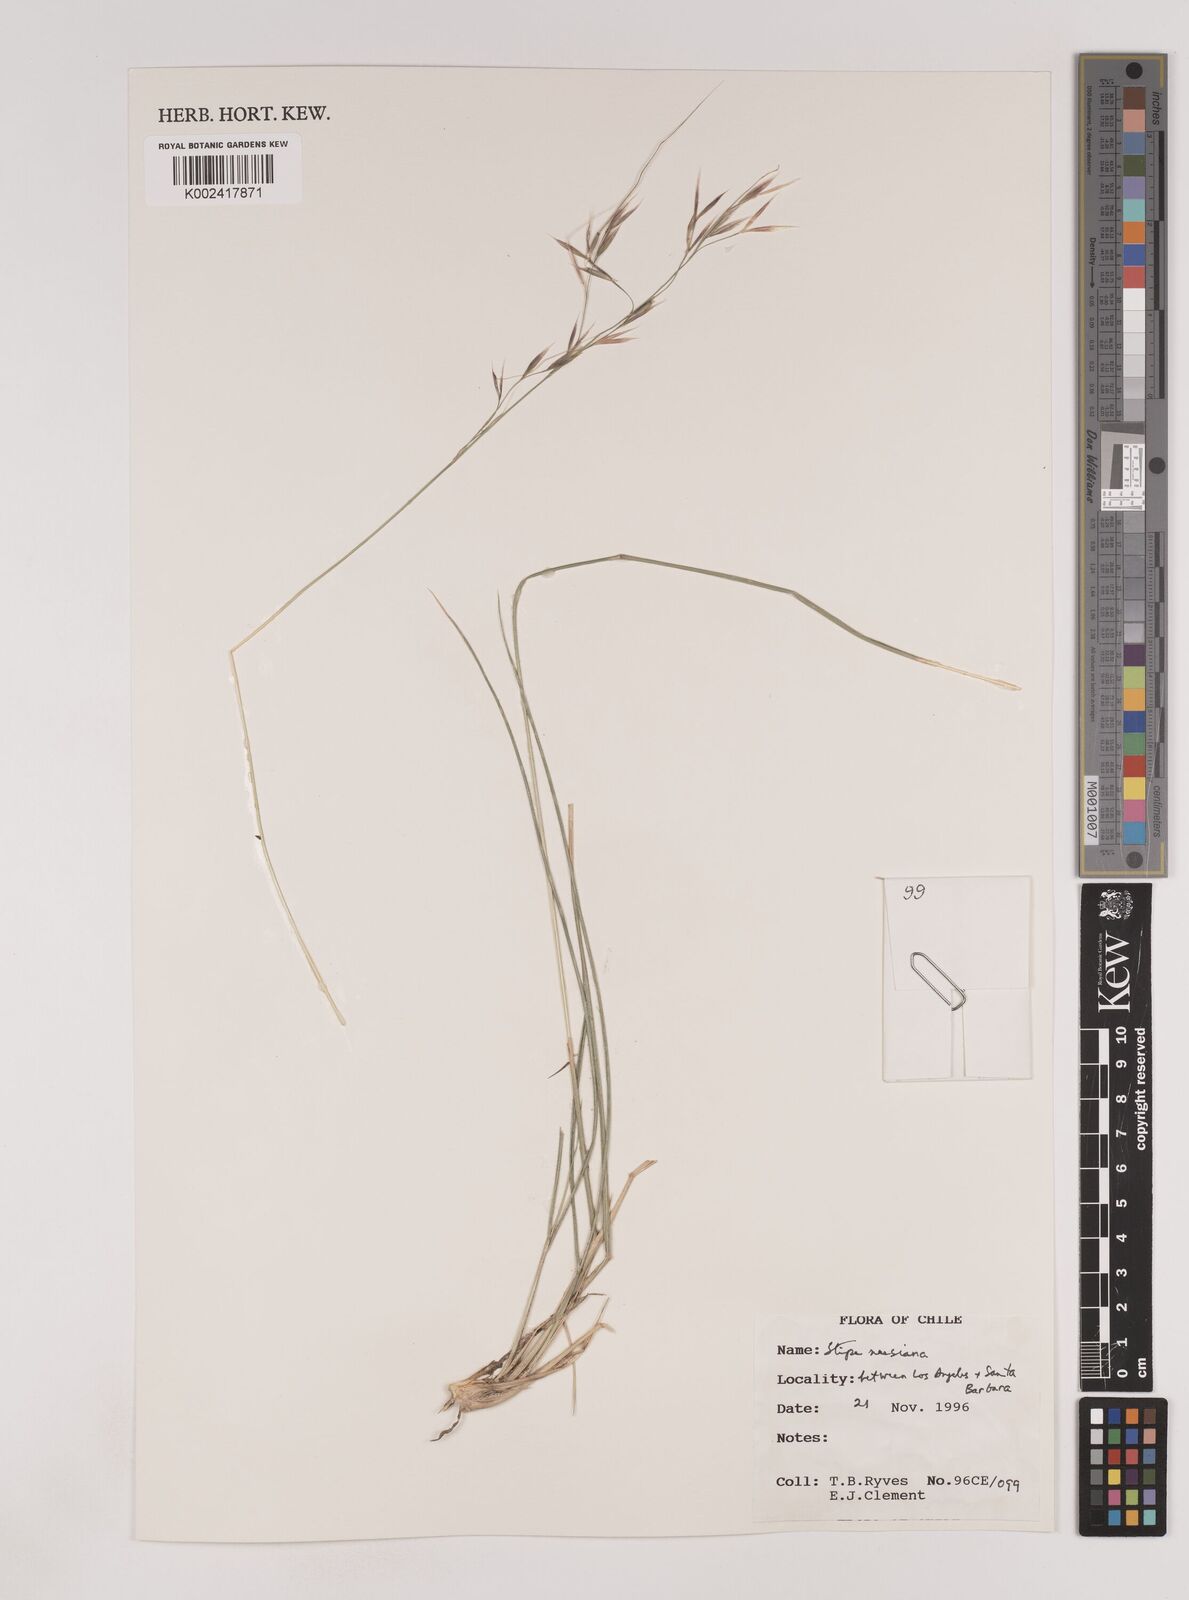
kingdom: Plantae
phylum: Tracheophyta
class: Liliopsida
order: Poales
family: Poaceae
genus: Nassella
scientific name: Nassella neesiana
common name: American needle-grass
